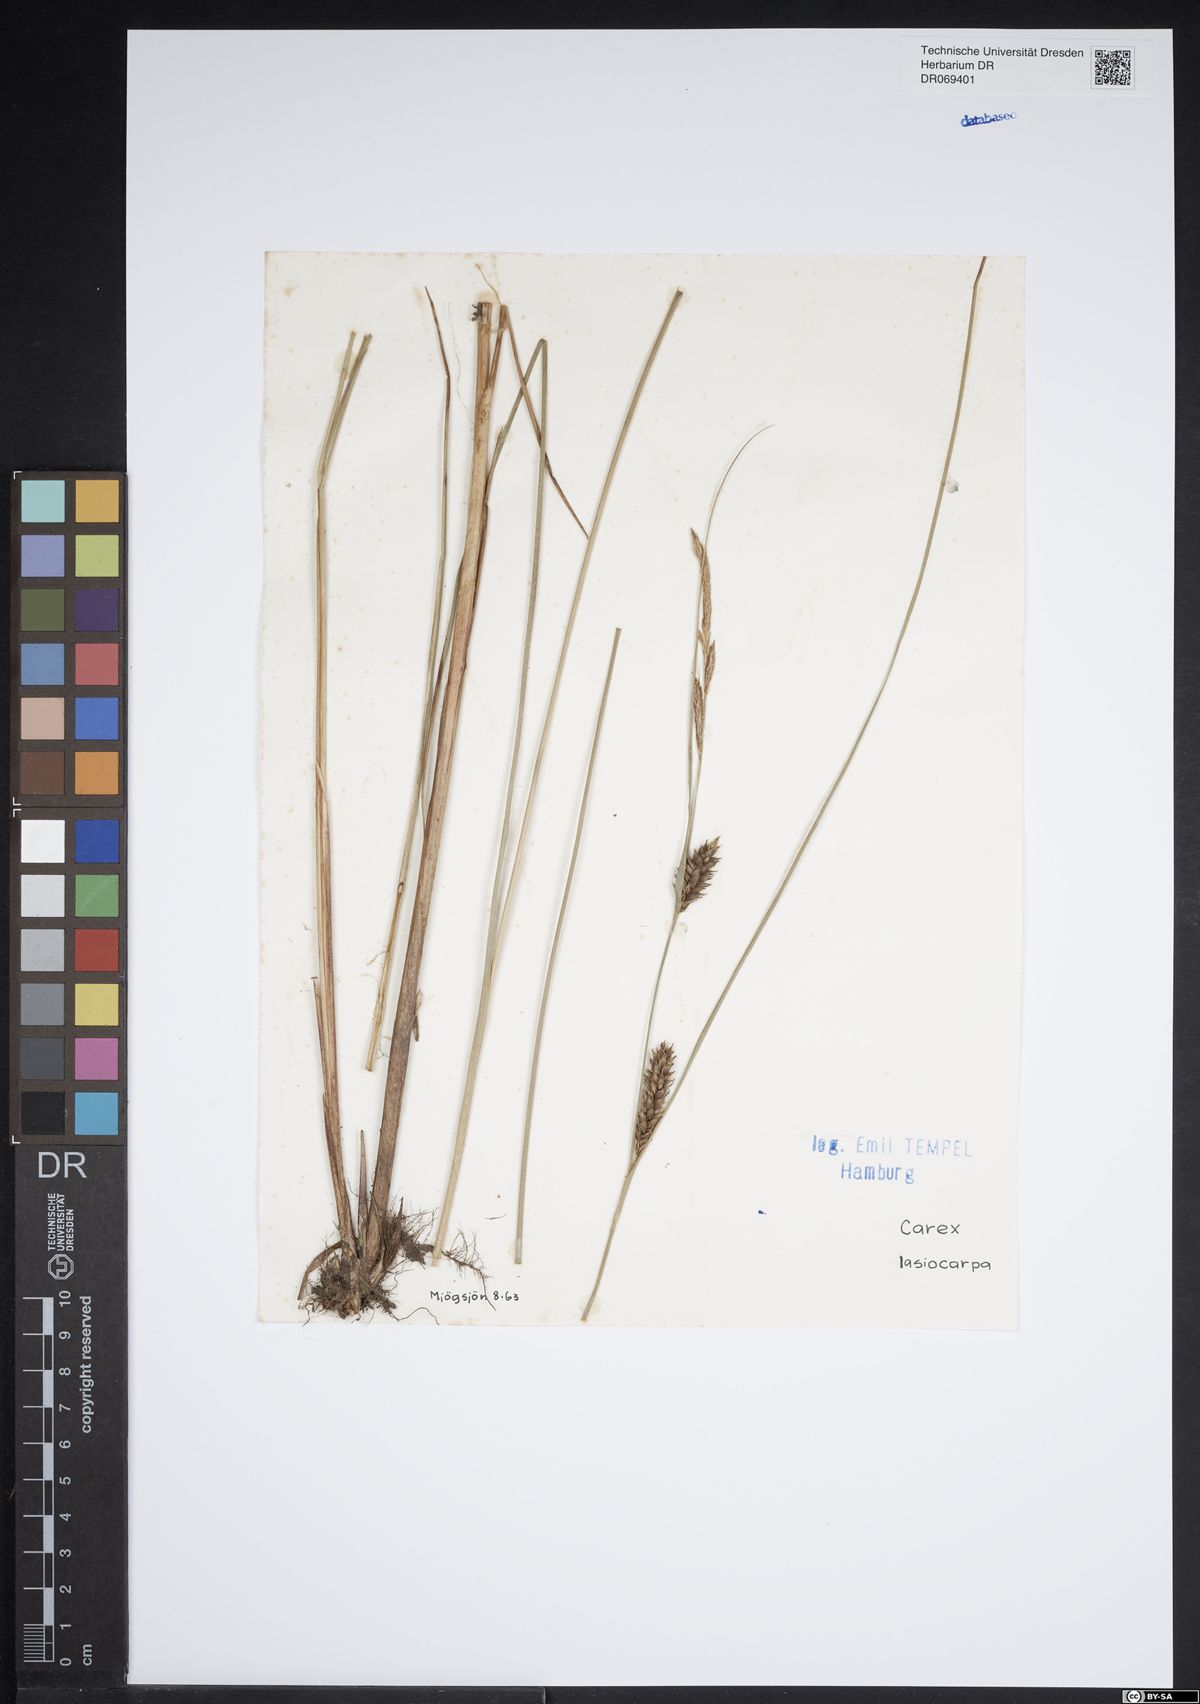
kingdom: Plantae
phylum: Tracheophyta
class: Liliopsida
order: Poales
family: Cyperaceae
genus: Carex
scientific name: Carex lasiocarpa
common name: Slender sedge
